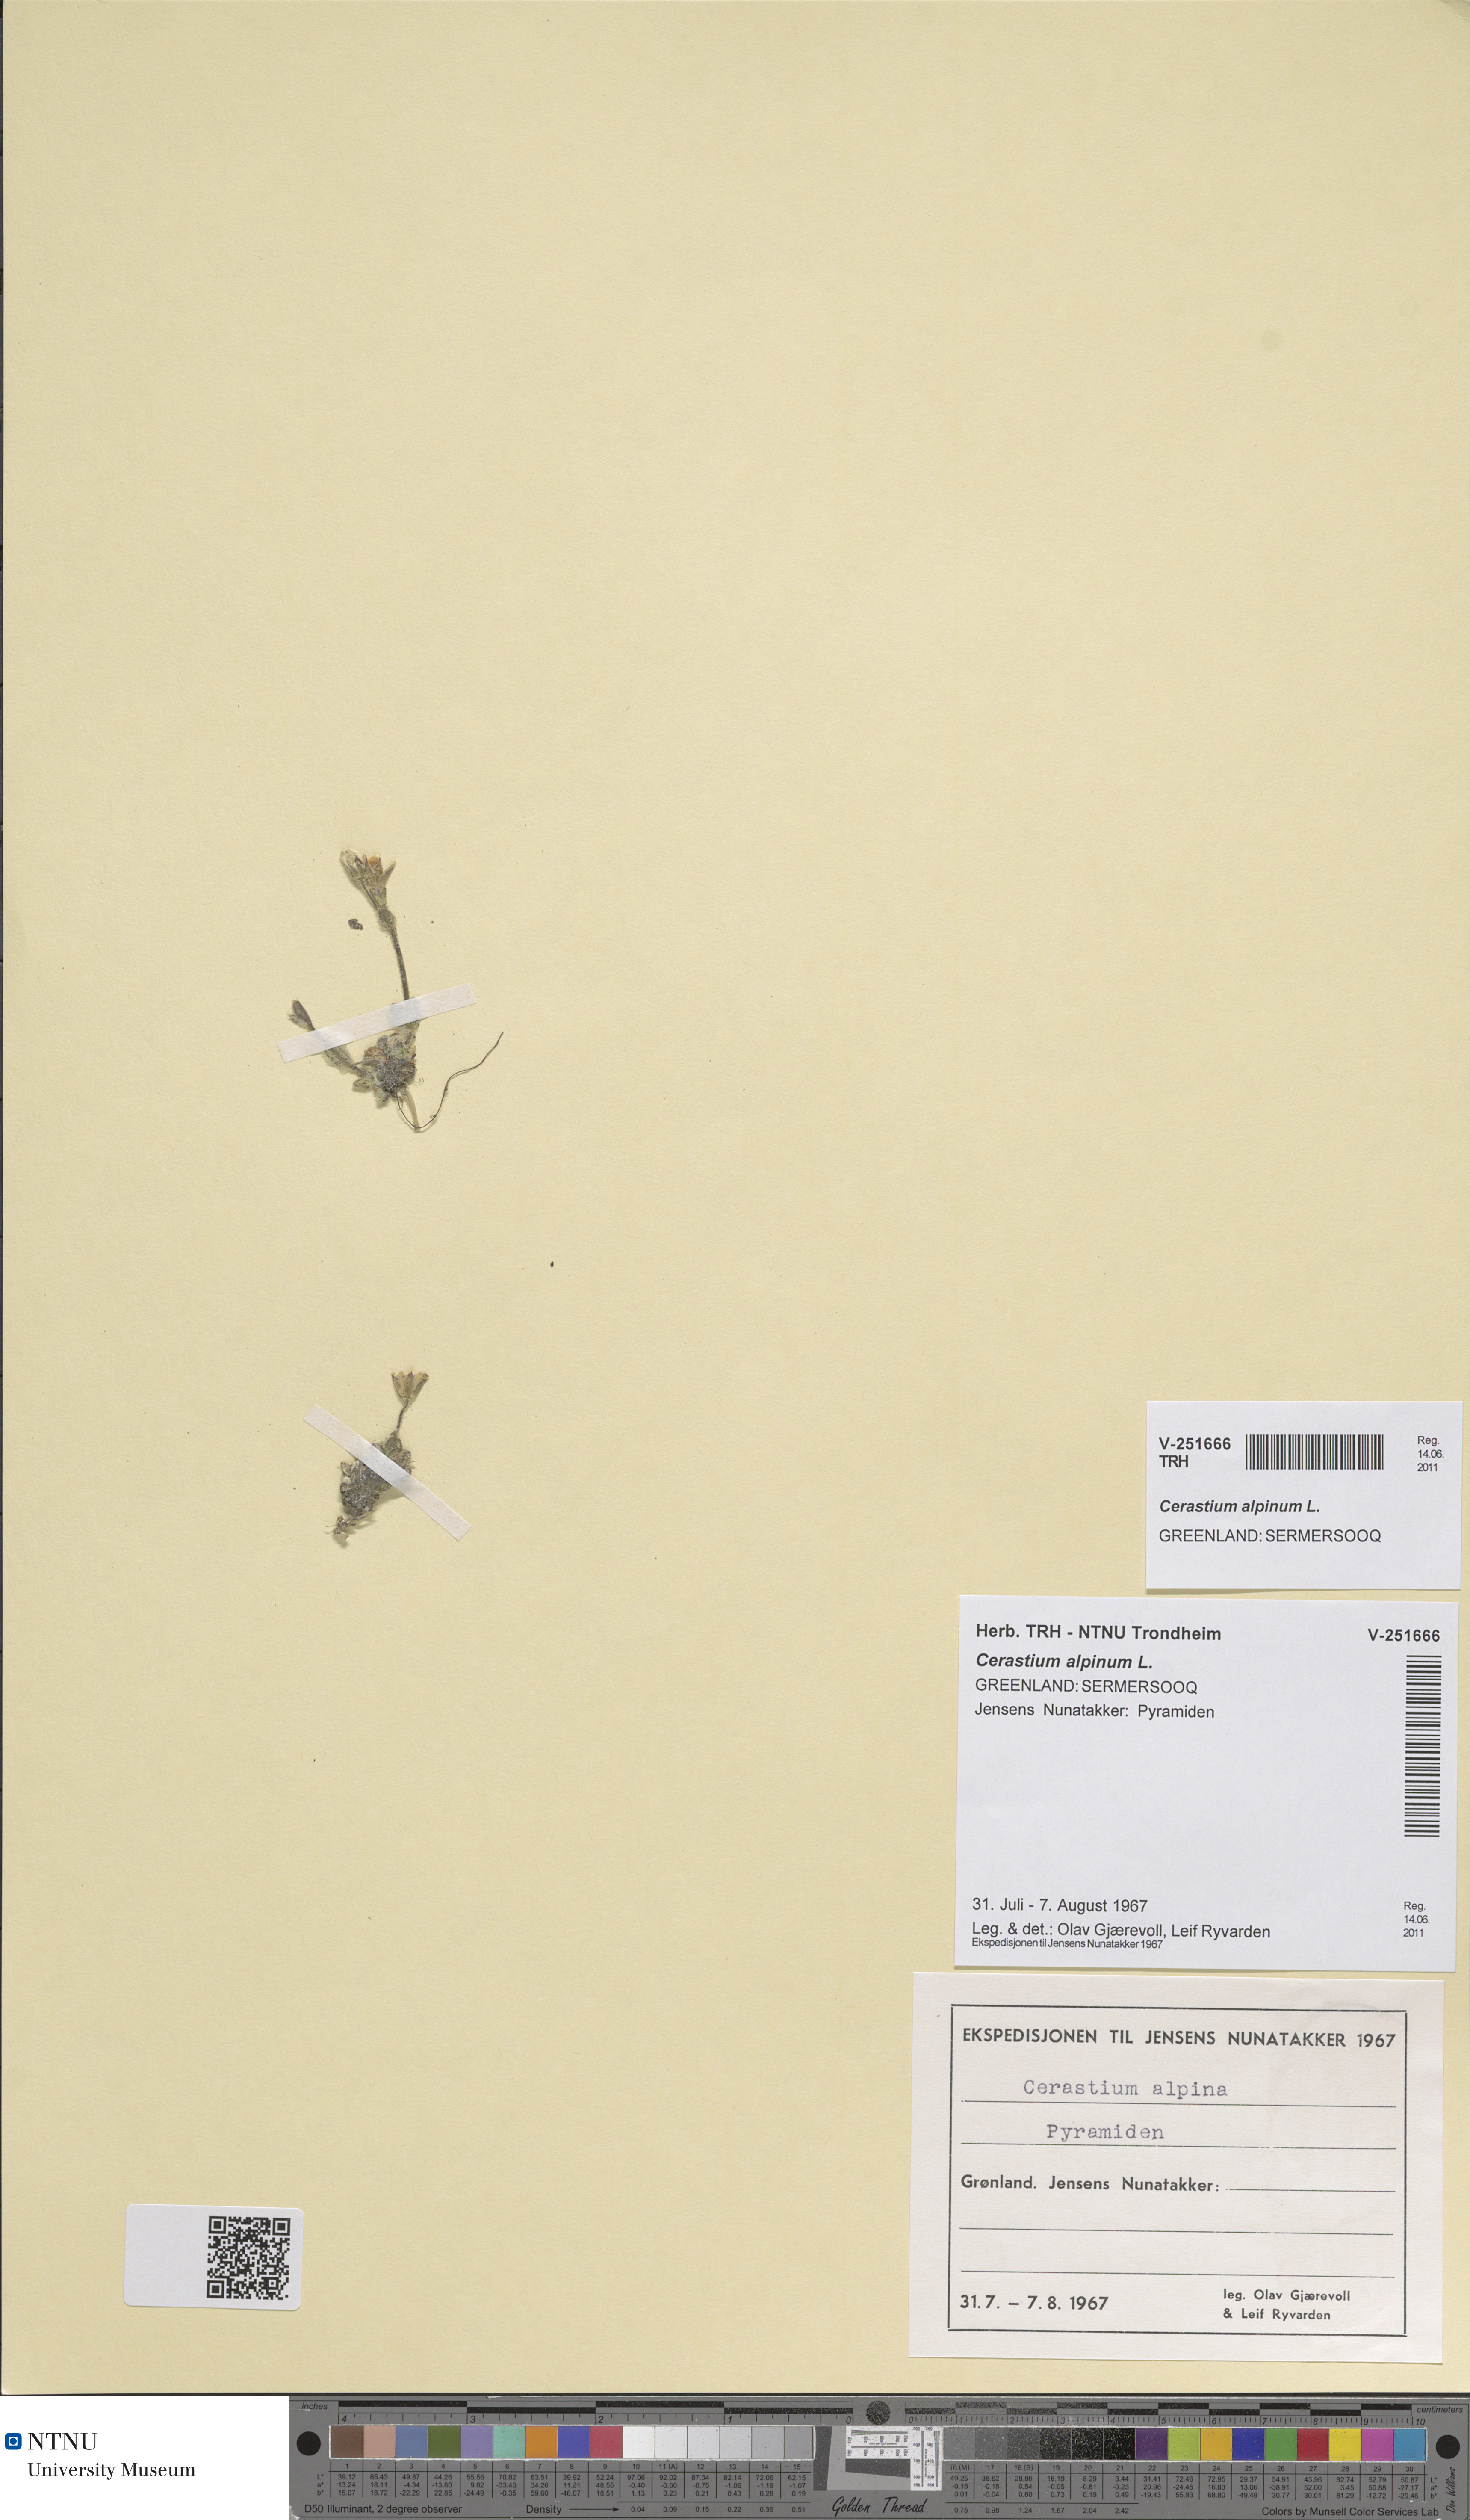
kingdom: Plantae
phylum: Tracheophyta
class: Magnoliopsida
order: Caryophyllales
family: Caryophyllaceae
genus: Cerastium
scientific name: Cerastium alpinum
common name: Alpine mouse-ear
